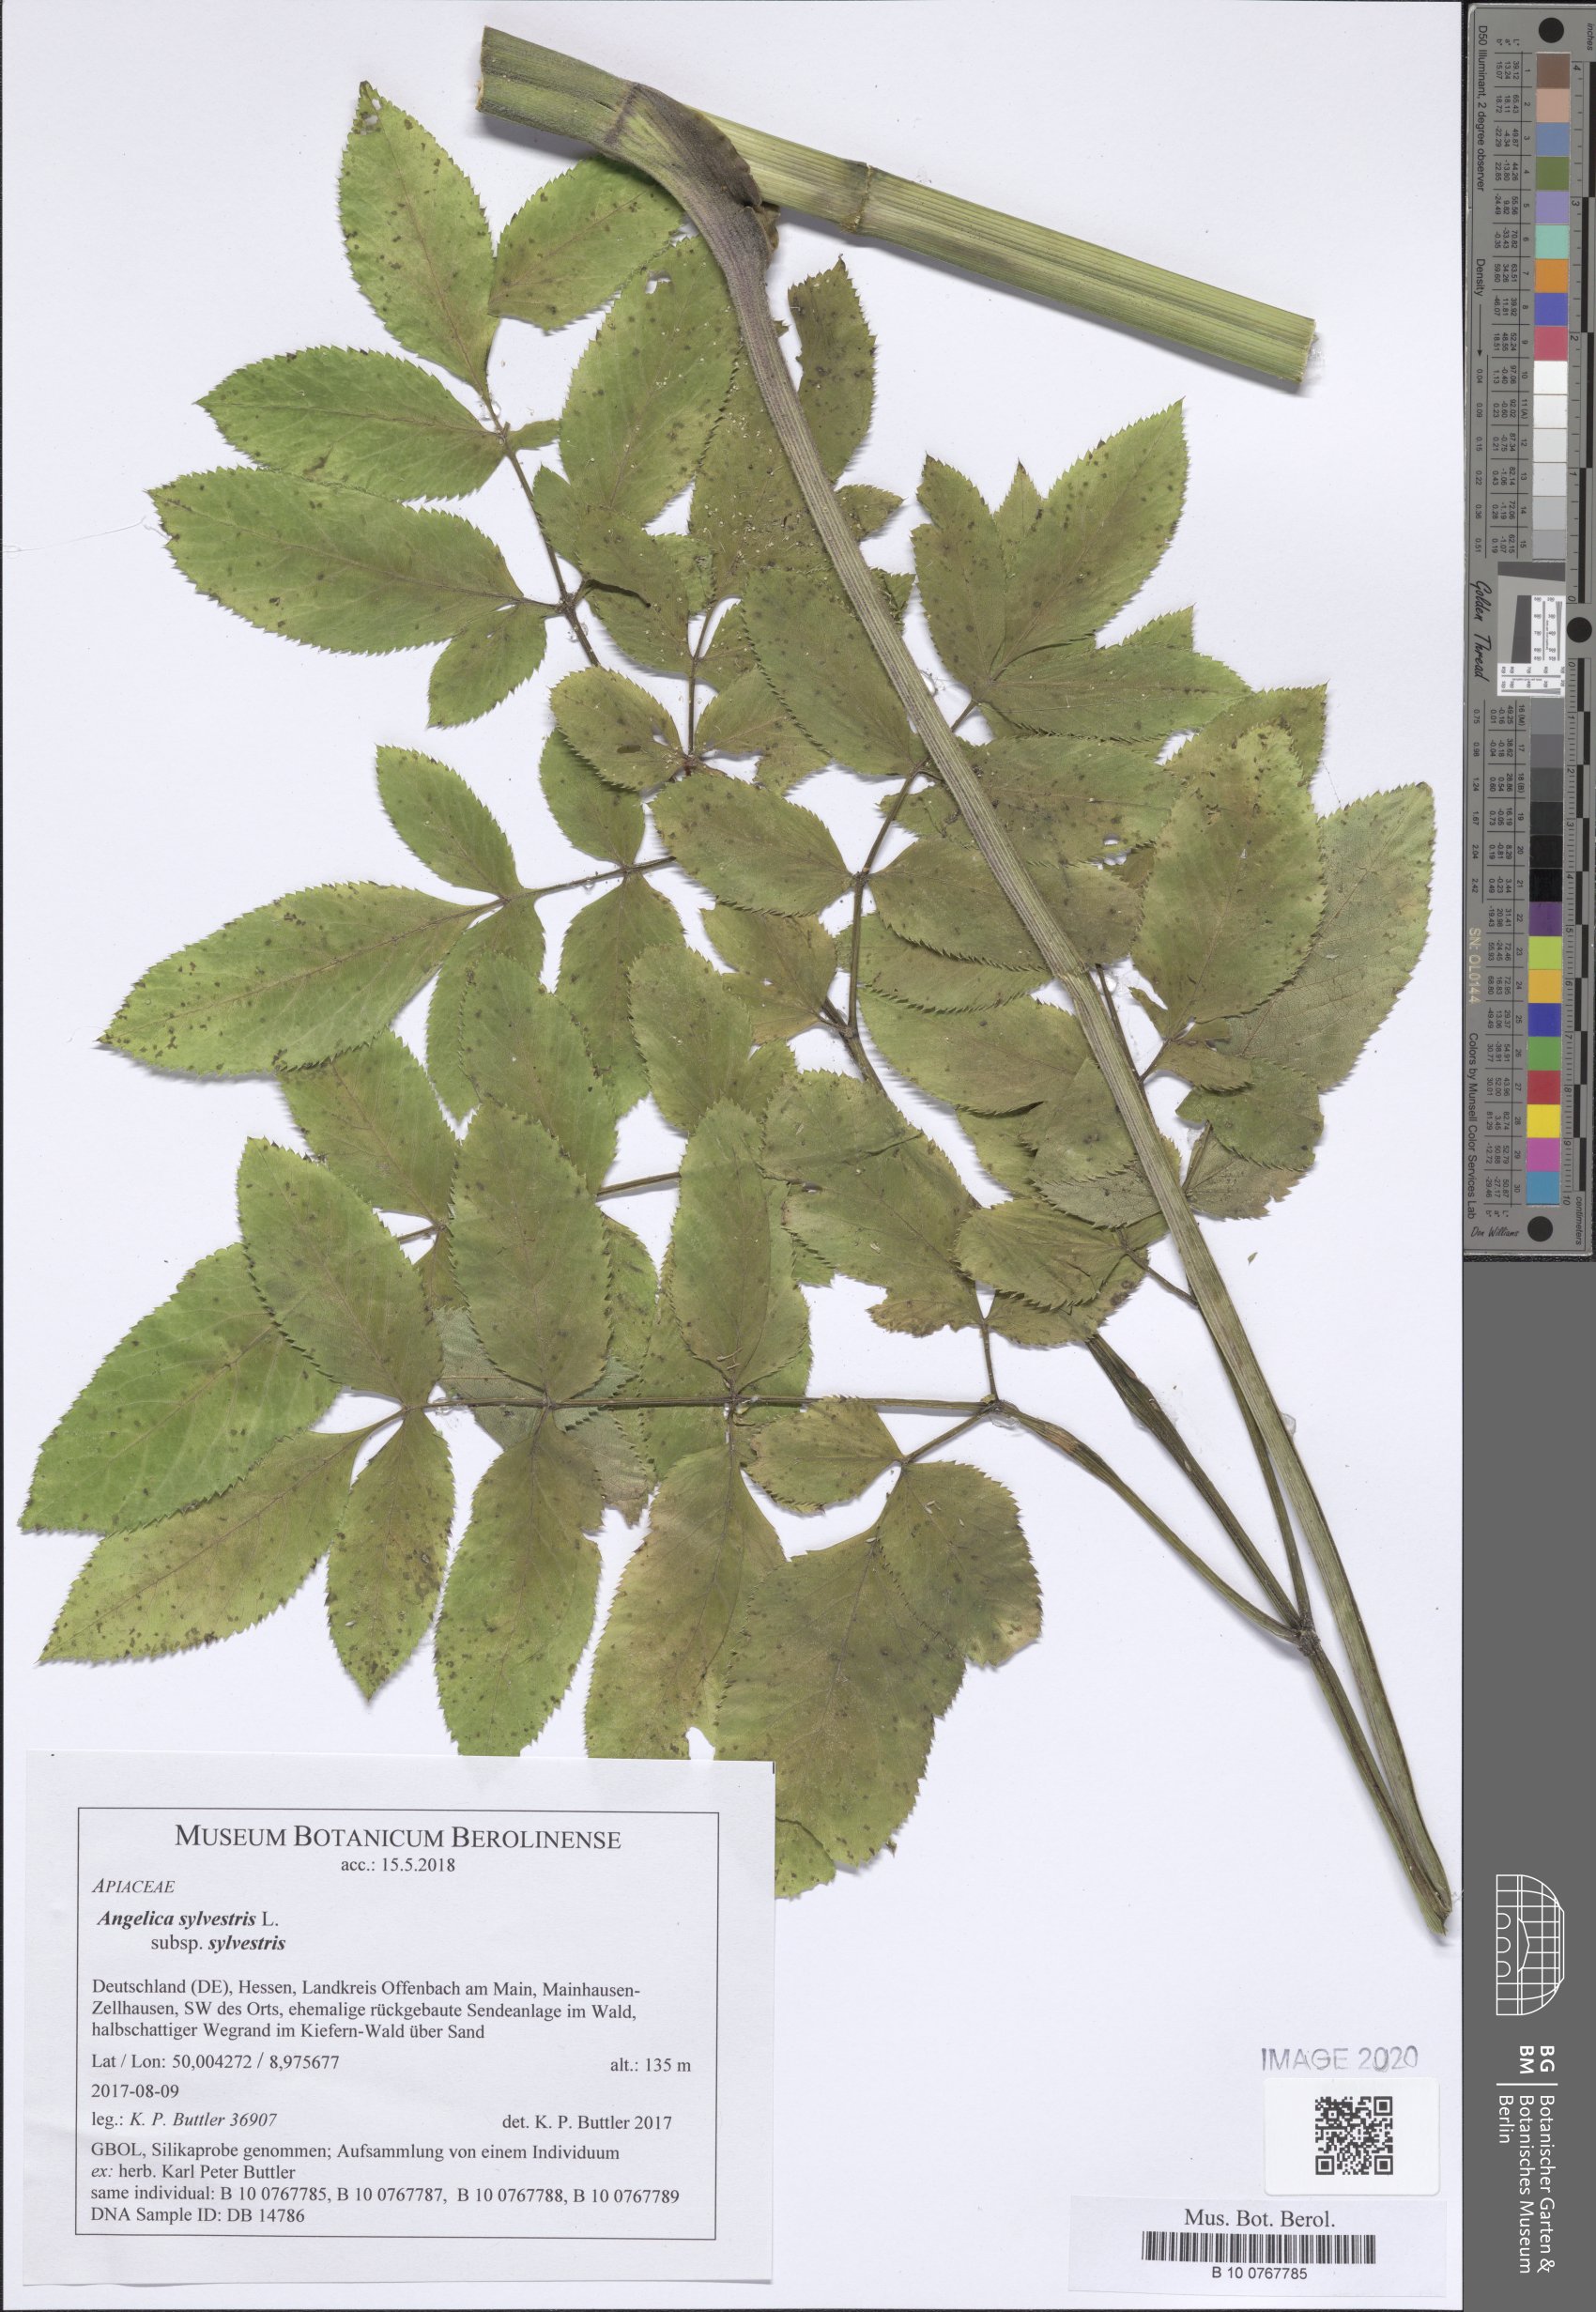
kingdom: Plantae
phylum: Tracheophyta
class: Magnoliopsida
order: Apiales
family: Apiaceae
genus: Angelica
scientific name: Angelica sylvestris
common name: Wild angelica
